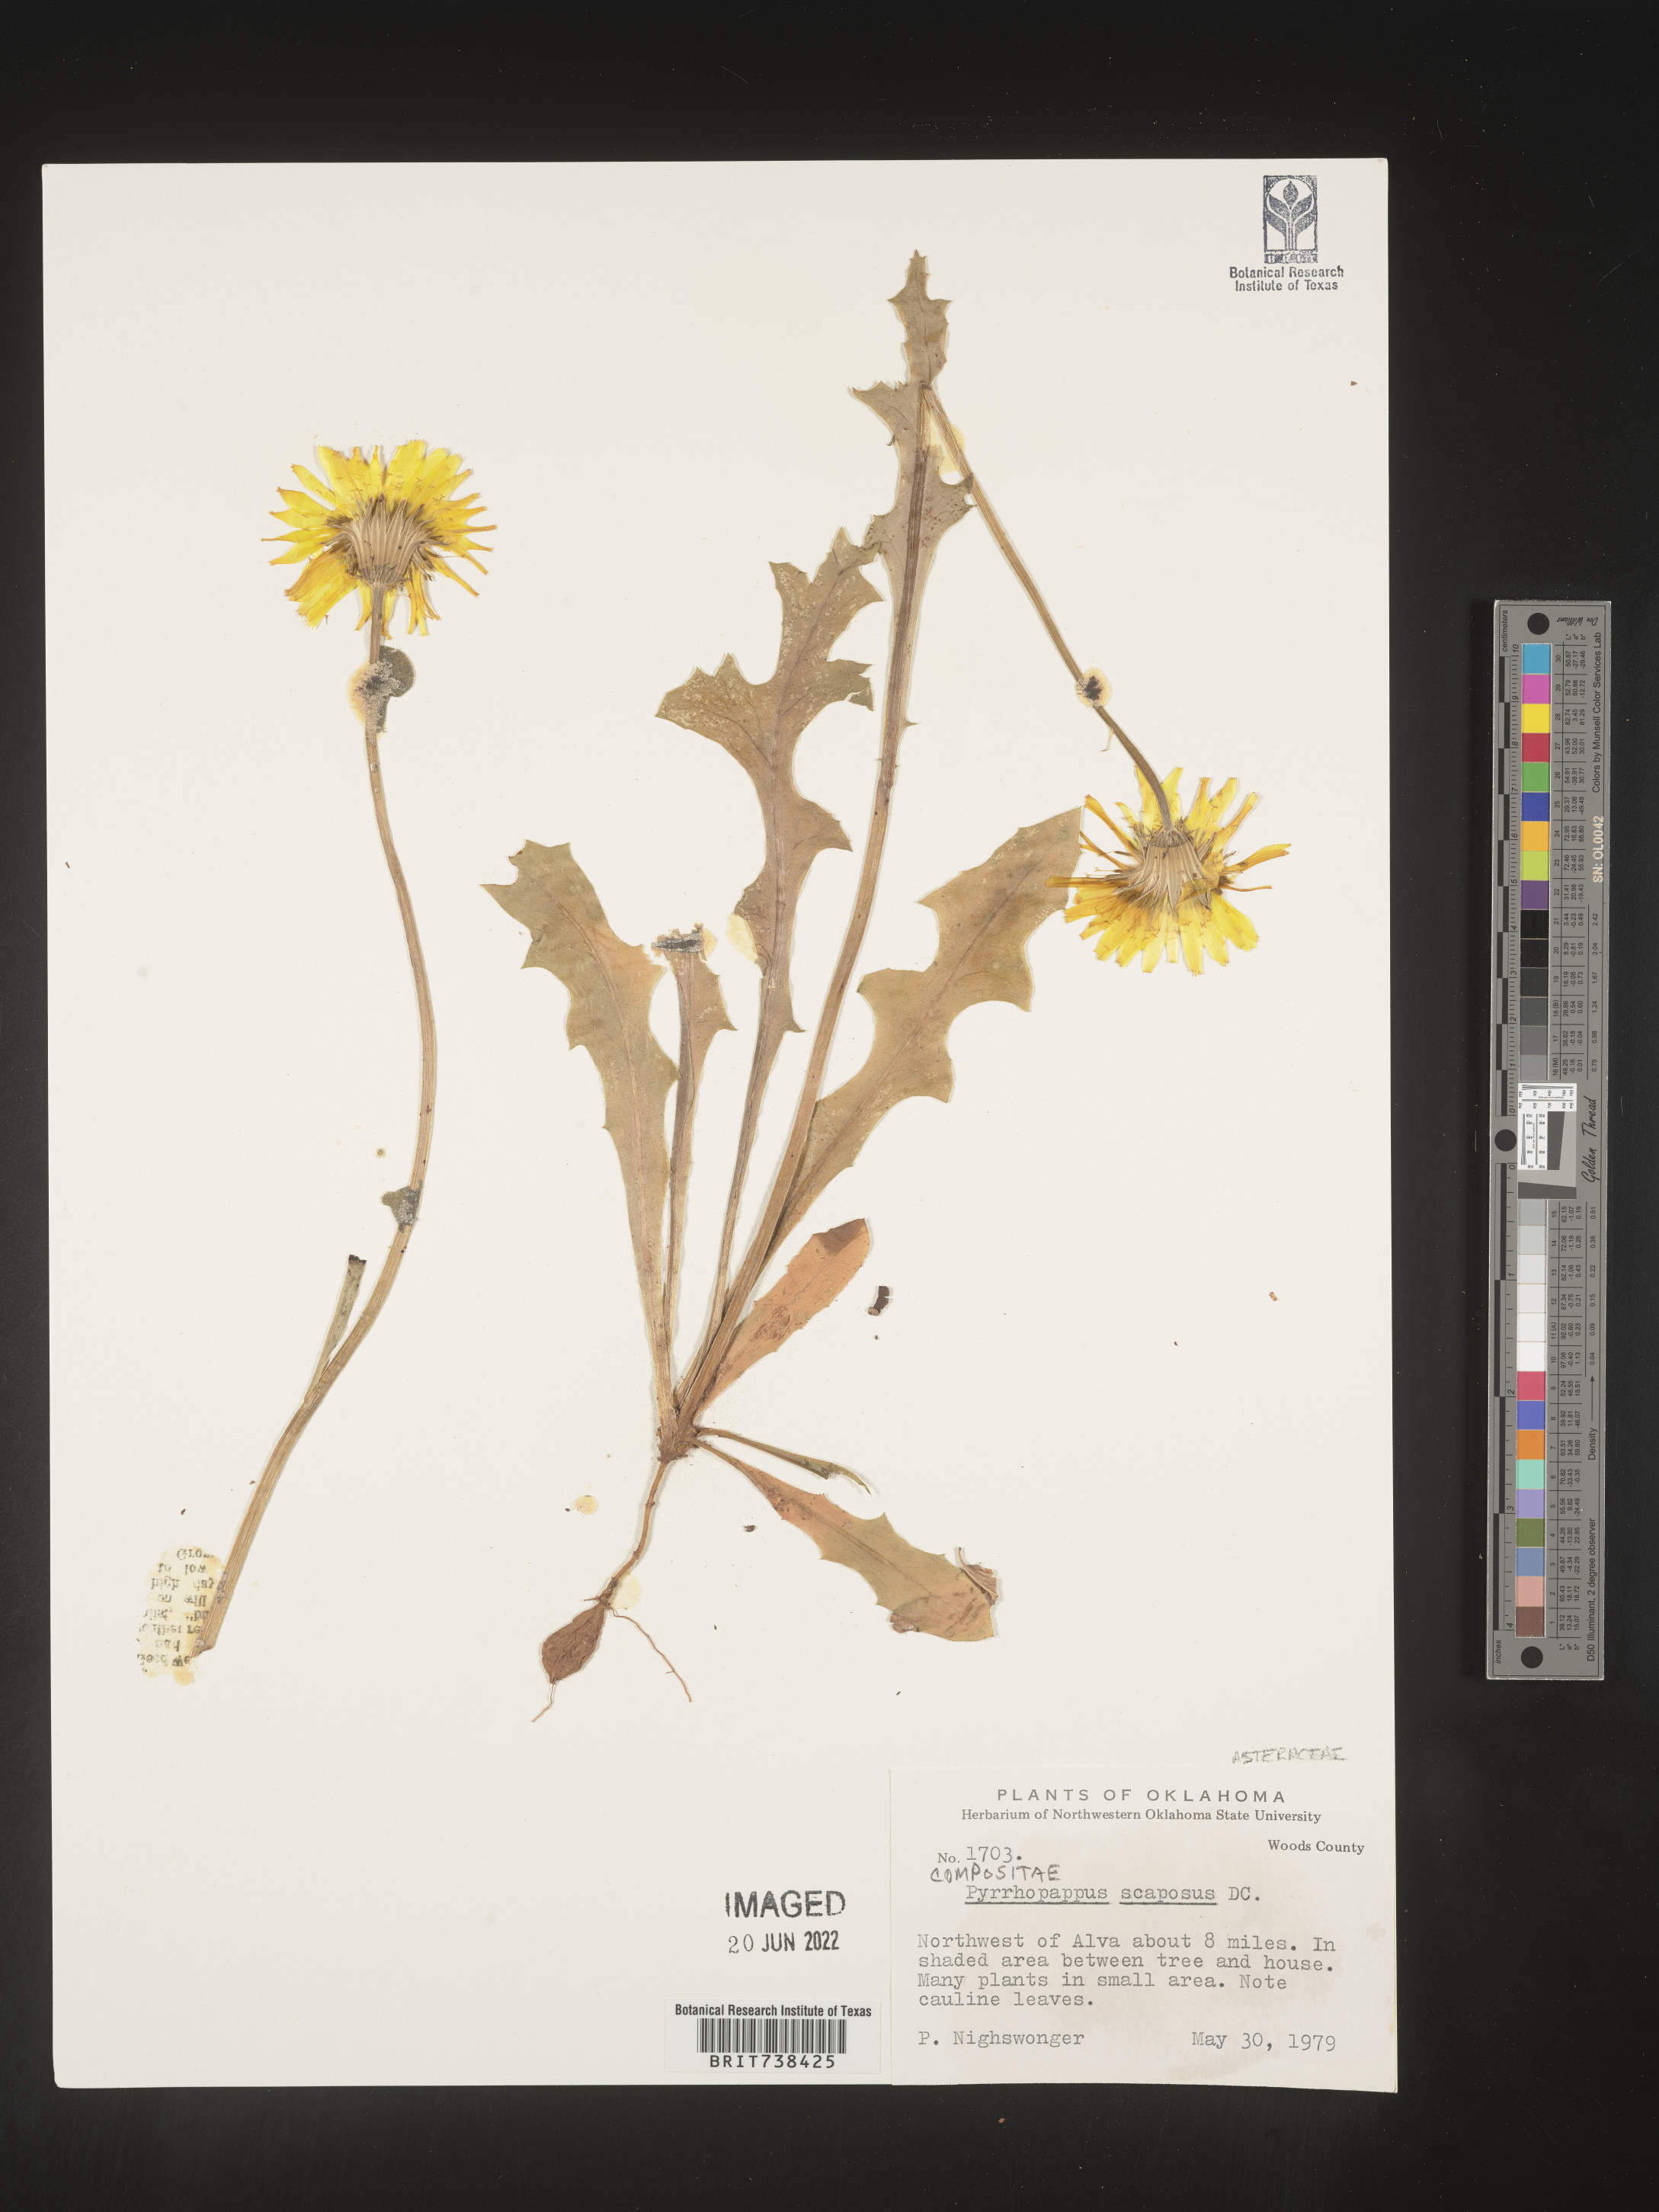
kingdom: Plantae
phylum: Tracheophyta
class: Magnoliopsida
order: Asterales
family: Asteraceae
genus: Pyrrhopappus
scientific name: Pyrrhopappus grandiflorus
